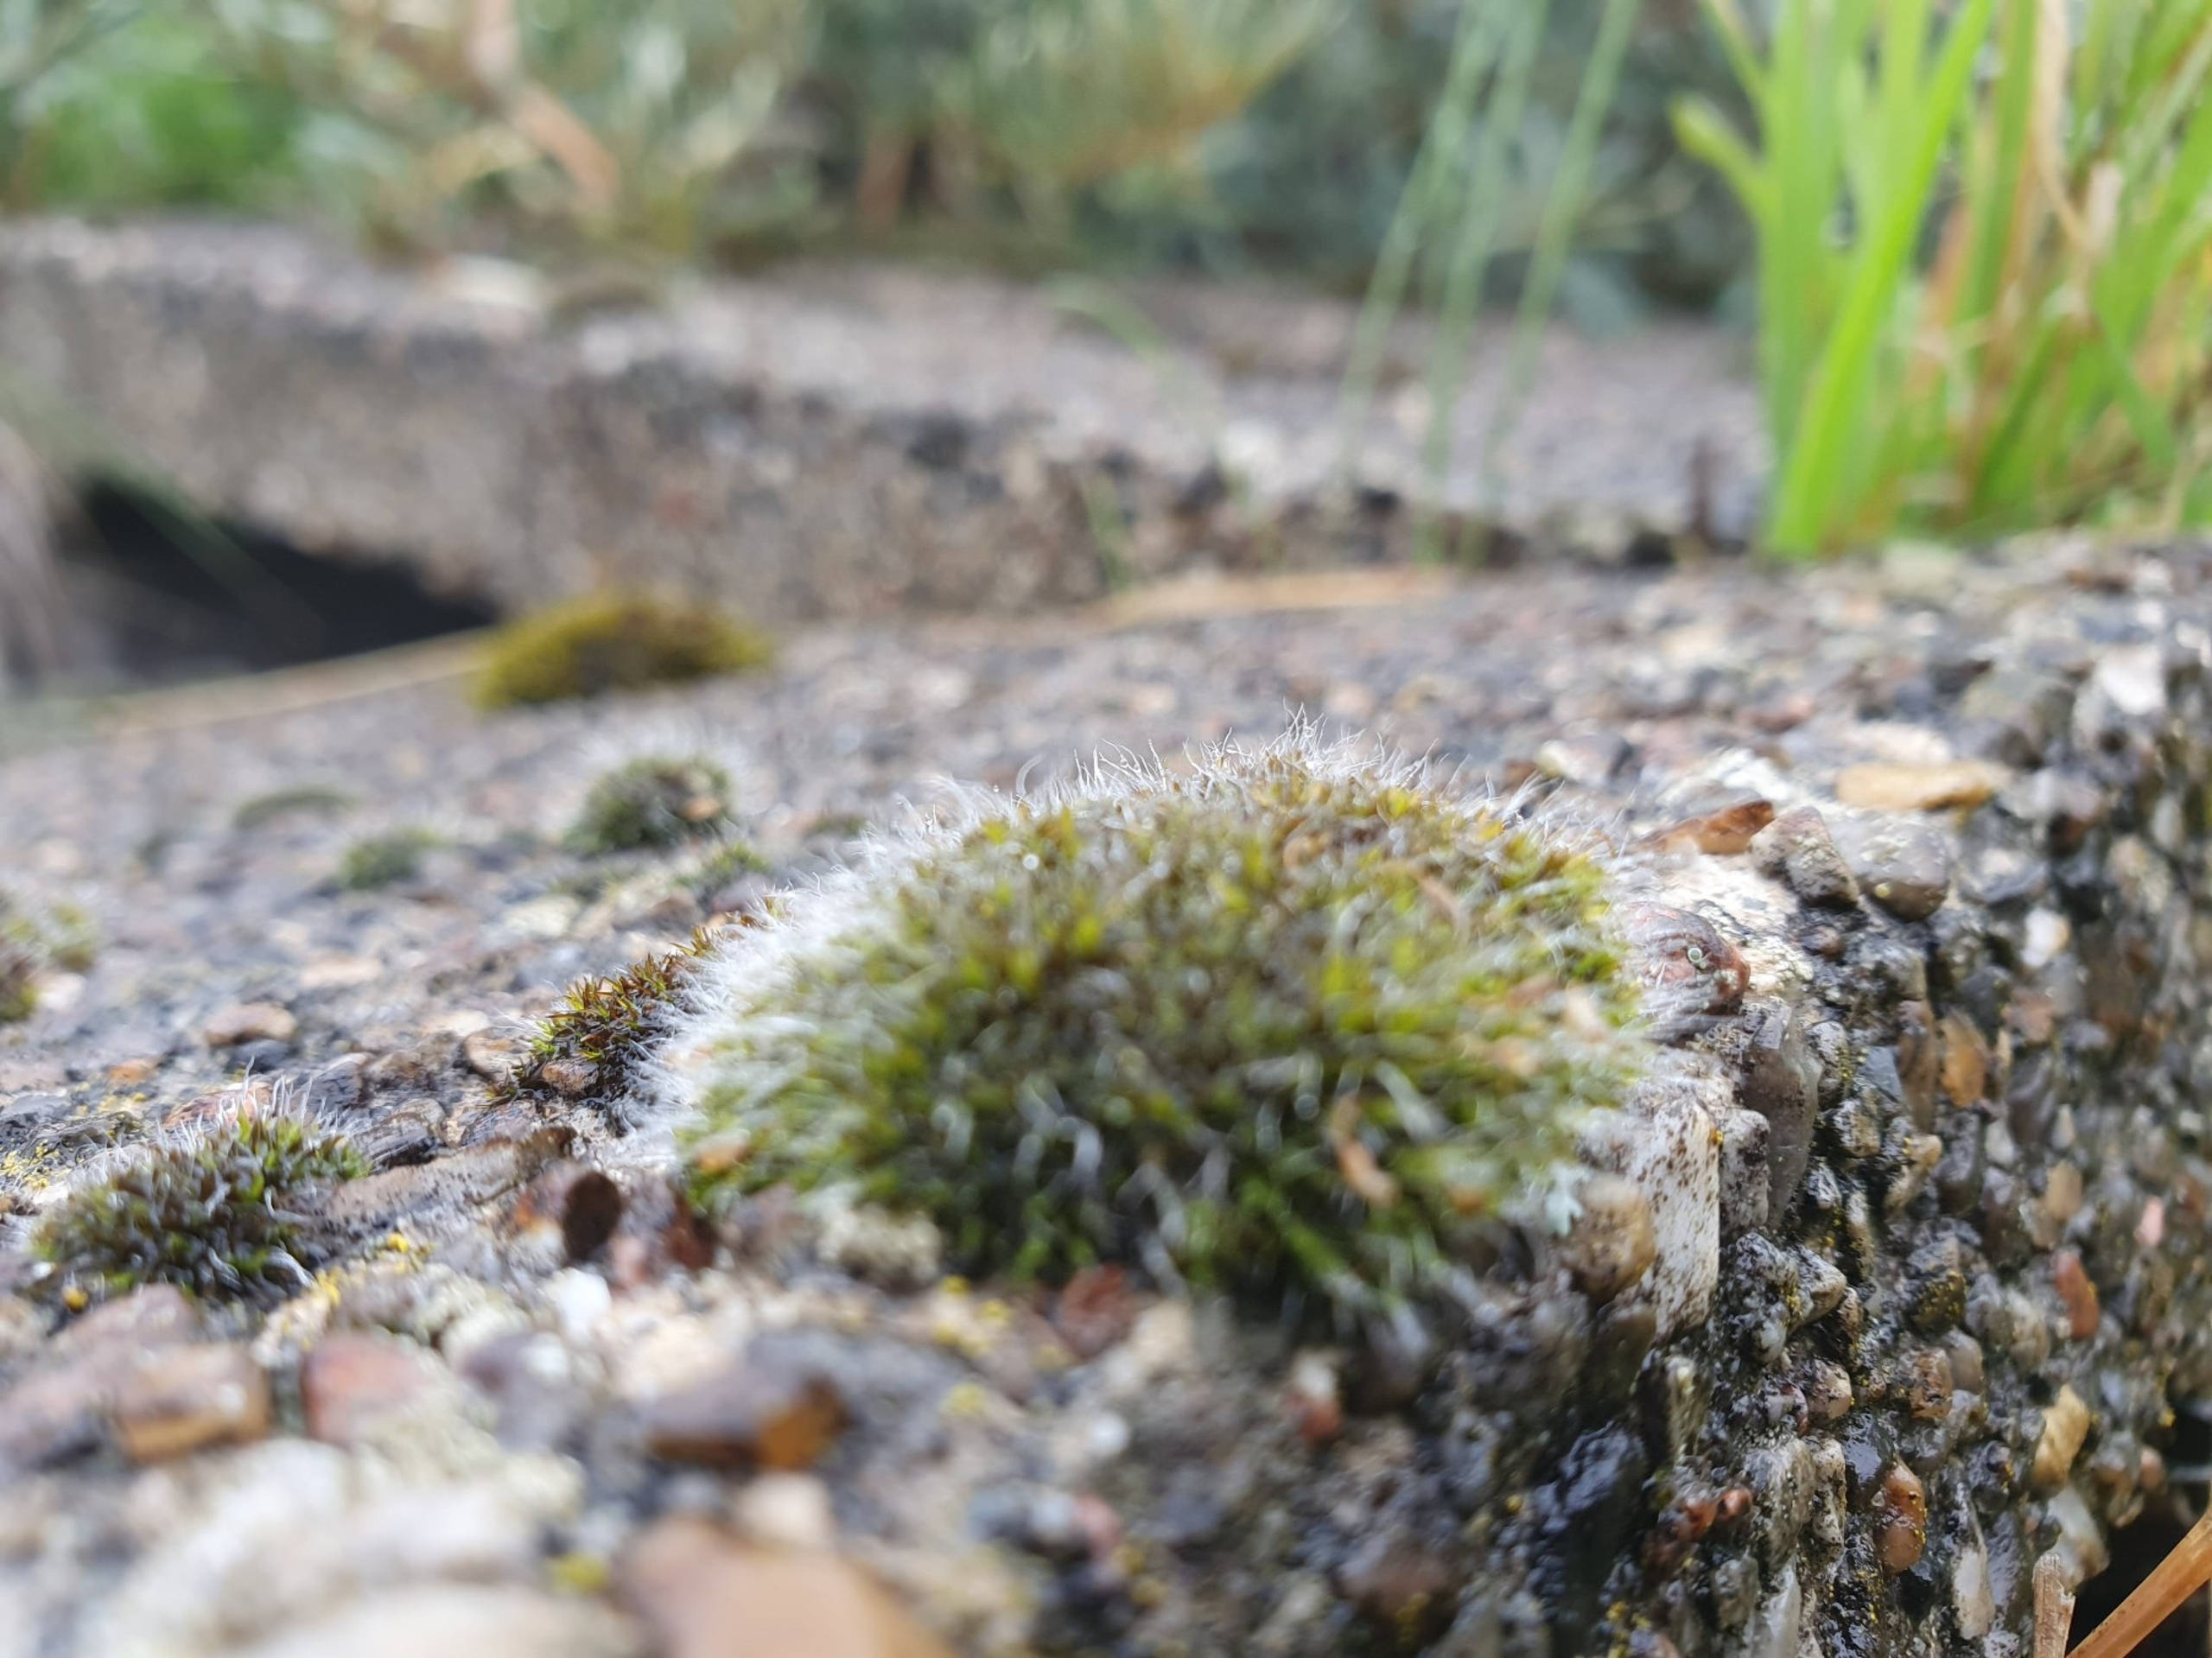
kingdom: Plantae
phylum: Bryophyta
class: Bryopsida
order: Grimmiales
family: Grimmiaceae
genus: Grimmia
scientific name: Grimmia pulvinata
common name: Pude-gråmos
